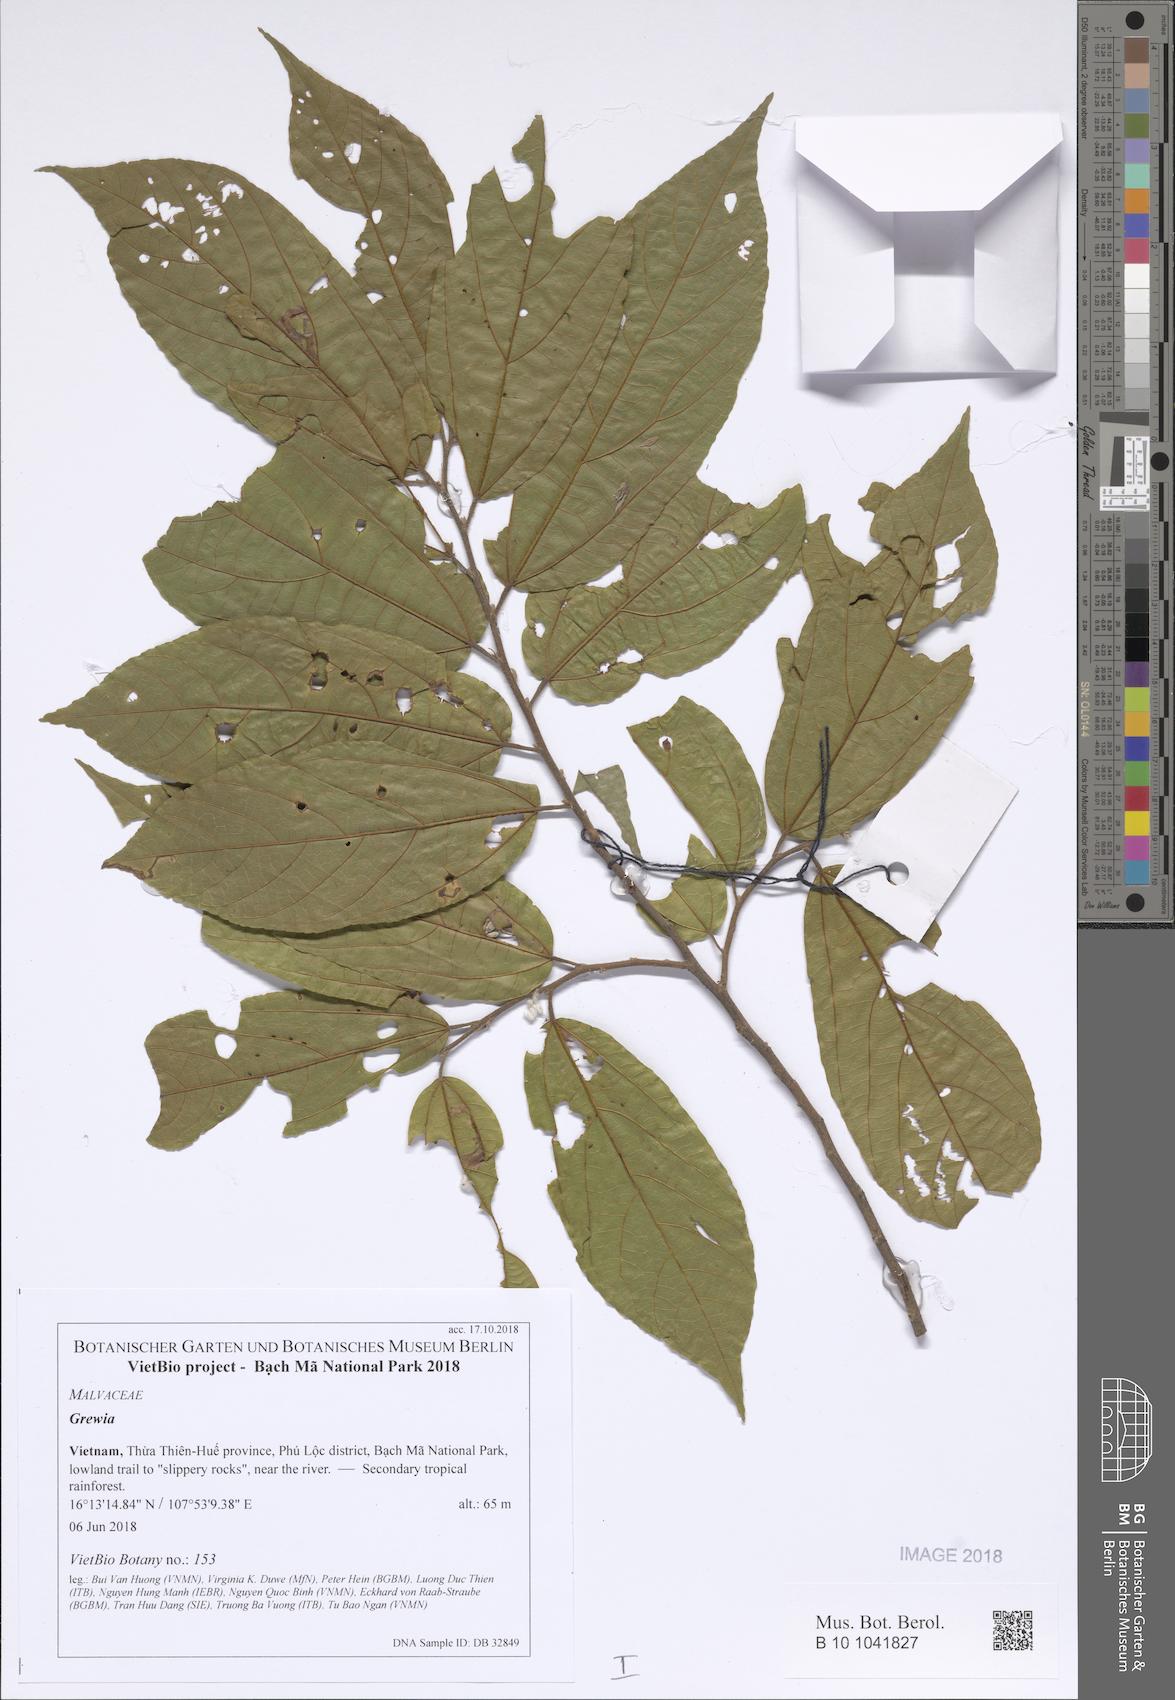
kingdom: Plantae
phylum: Tracheophyta
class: Magnoliopsida
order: Malvales
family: Malvaceae
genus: Grewia
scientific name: Grewia
